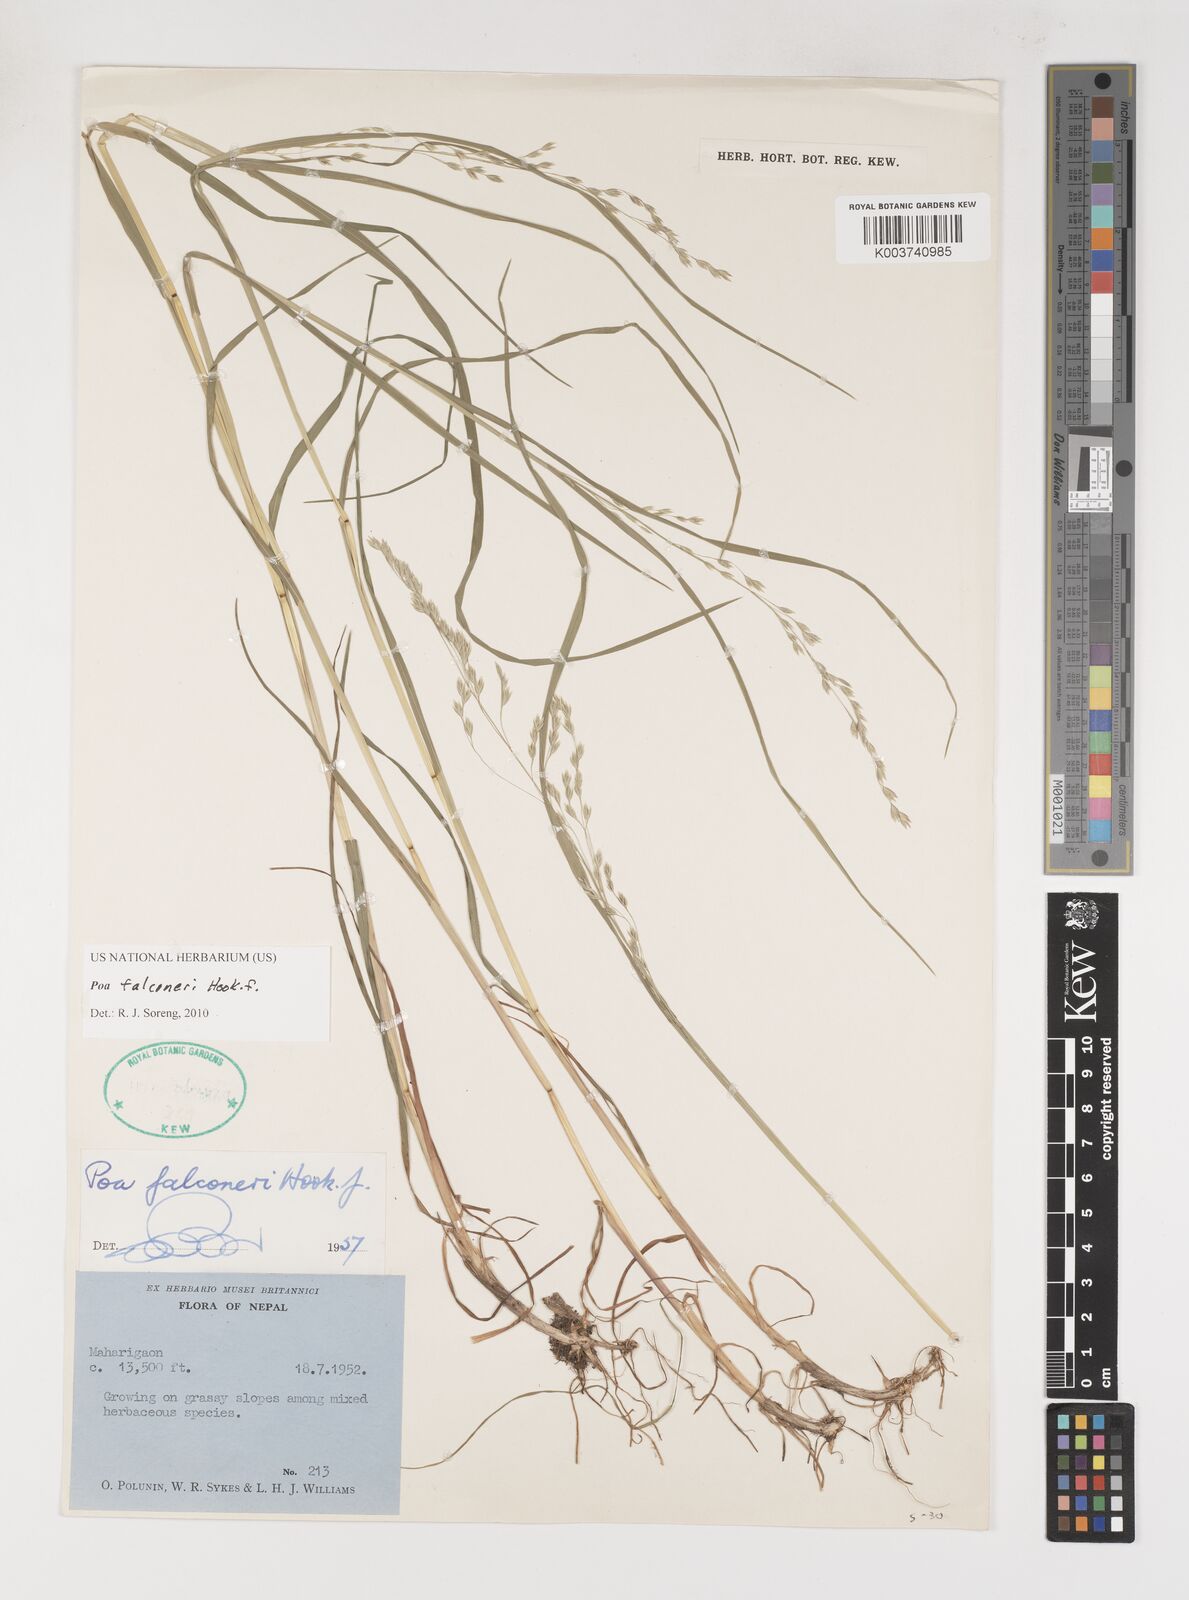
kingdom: Plantae
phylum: Tracheophyta
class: Liliopsida
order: Poales
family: Poaceae
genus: Poa
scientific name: Poa falconeri
